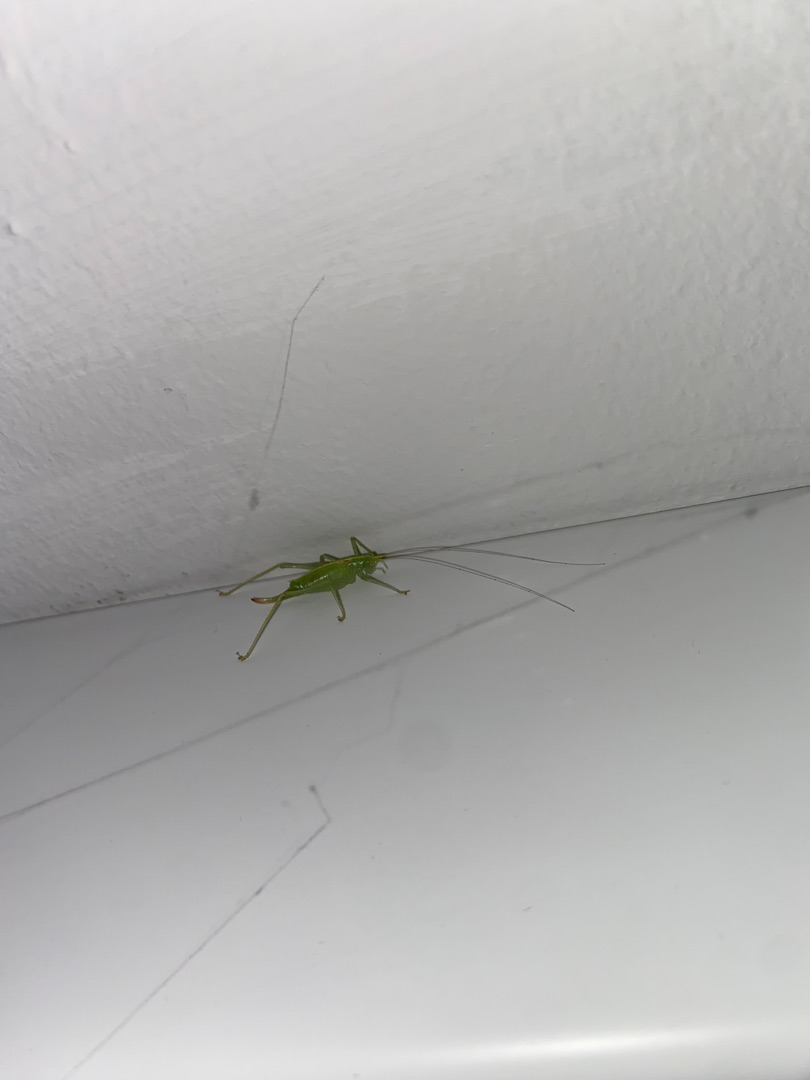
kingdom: Animalia
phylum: Arthropoda
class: Insecta
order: Orthoptera
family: Tettigoniidae
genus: Meconema
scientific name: Meconema meridionale
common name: Kortvinget egegræshoppe
